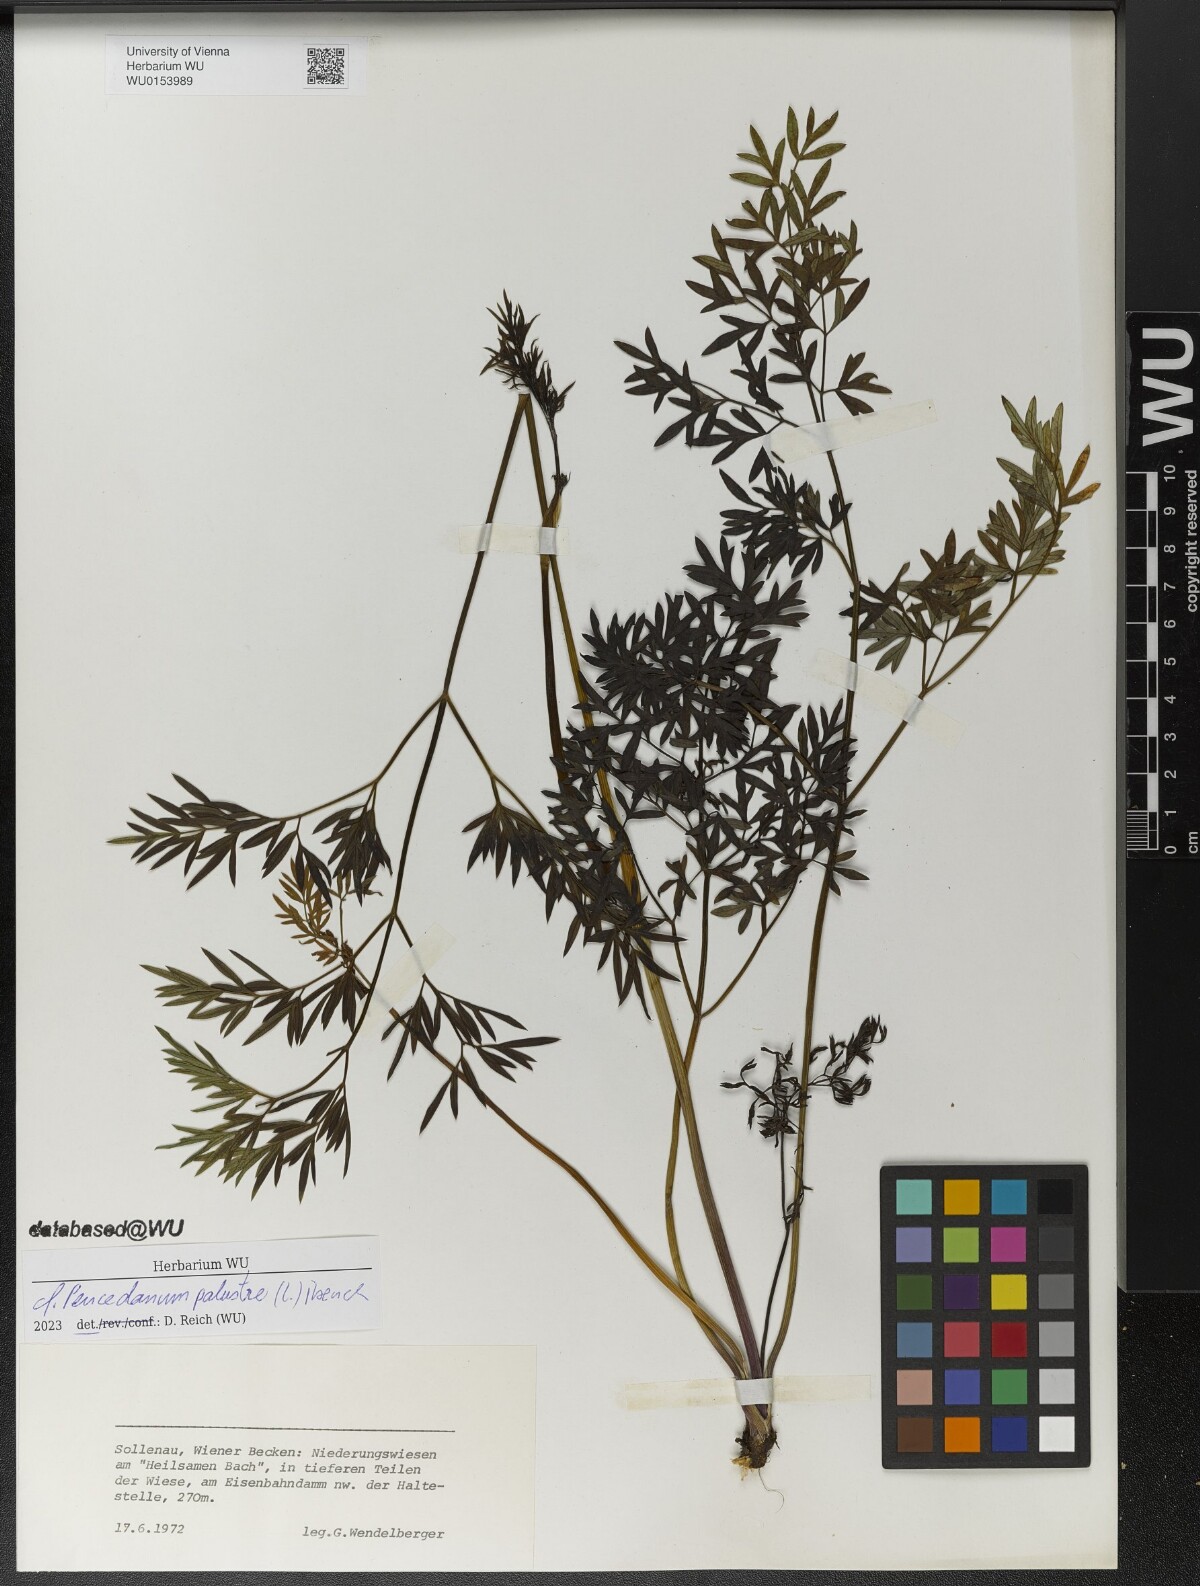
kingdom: Plantae
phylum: Tracheophyta
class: Magnoliopsida
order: Apiales
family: Apiaceae
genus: Thysselinum
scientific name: Thysselinum palustre
